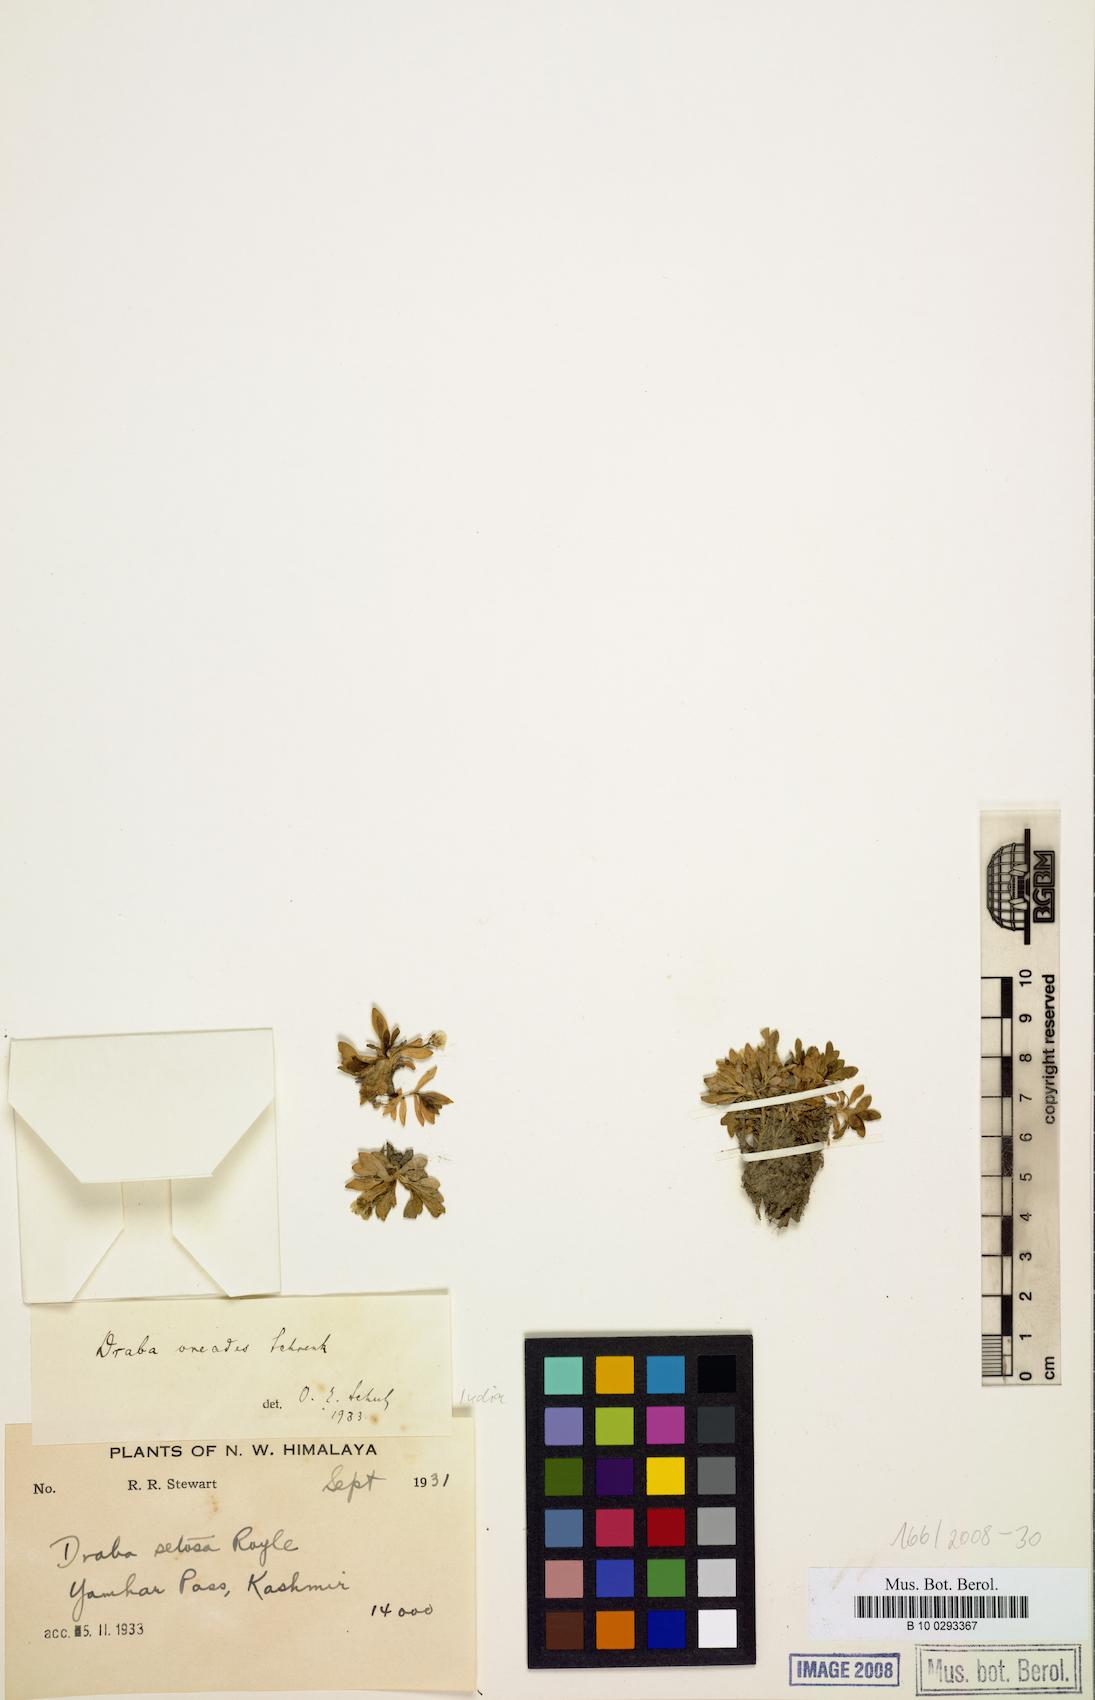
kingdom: Plantae
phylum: Tracheophyta
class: Magnoliopsida
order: Brassicales
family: Brassicaceae
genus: Draba
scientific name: Draba oreades
